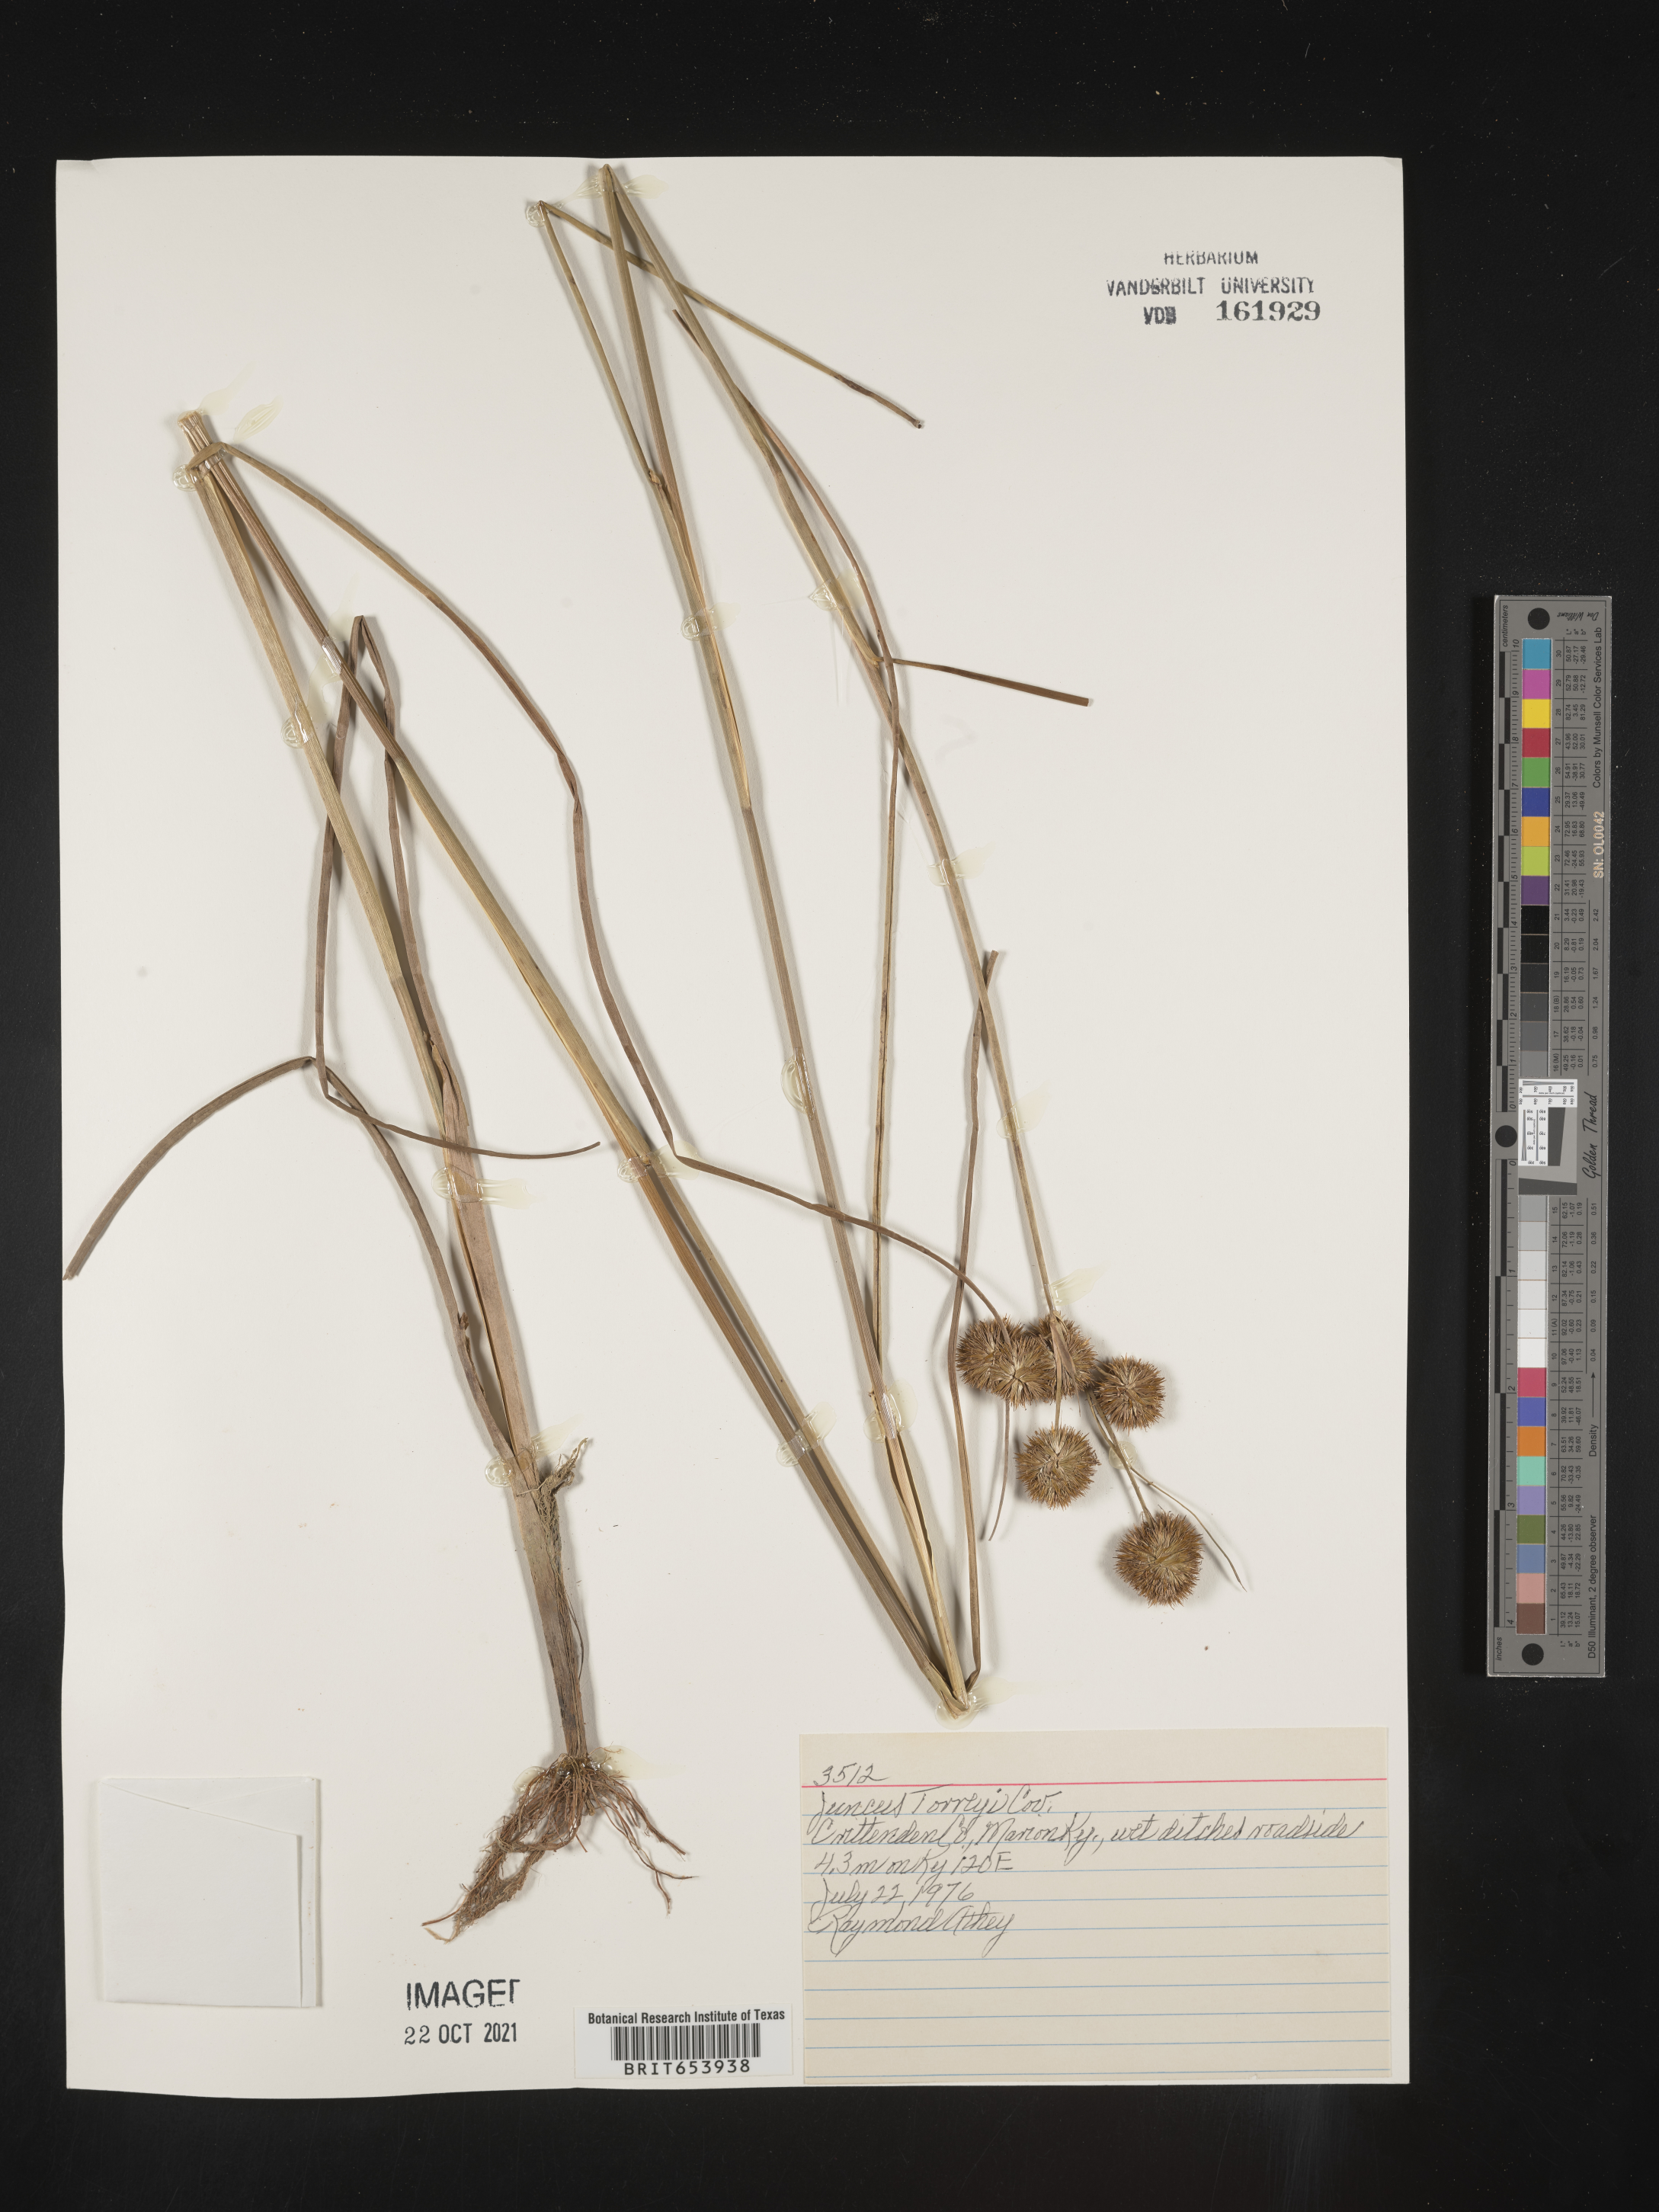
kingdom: Plantae
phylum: Tracheophyta
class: Liliopsida
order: Poales
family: Juncaceae
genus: Juncus
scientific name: Juncus torreyi
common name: Torrey's rush
